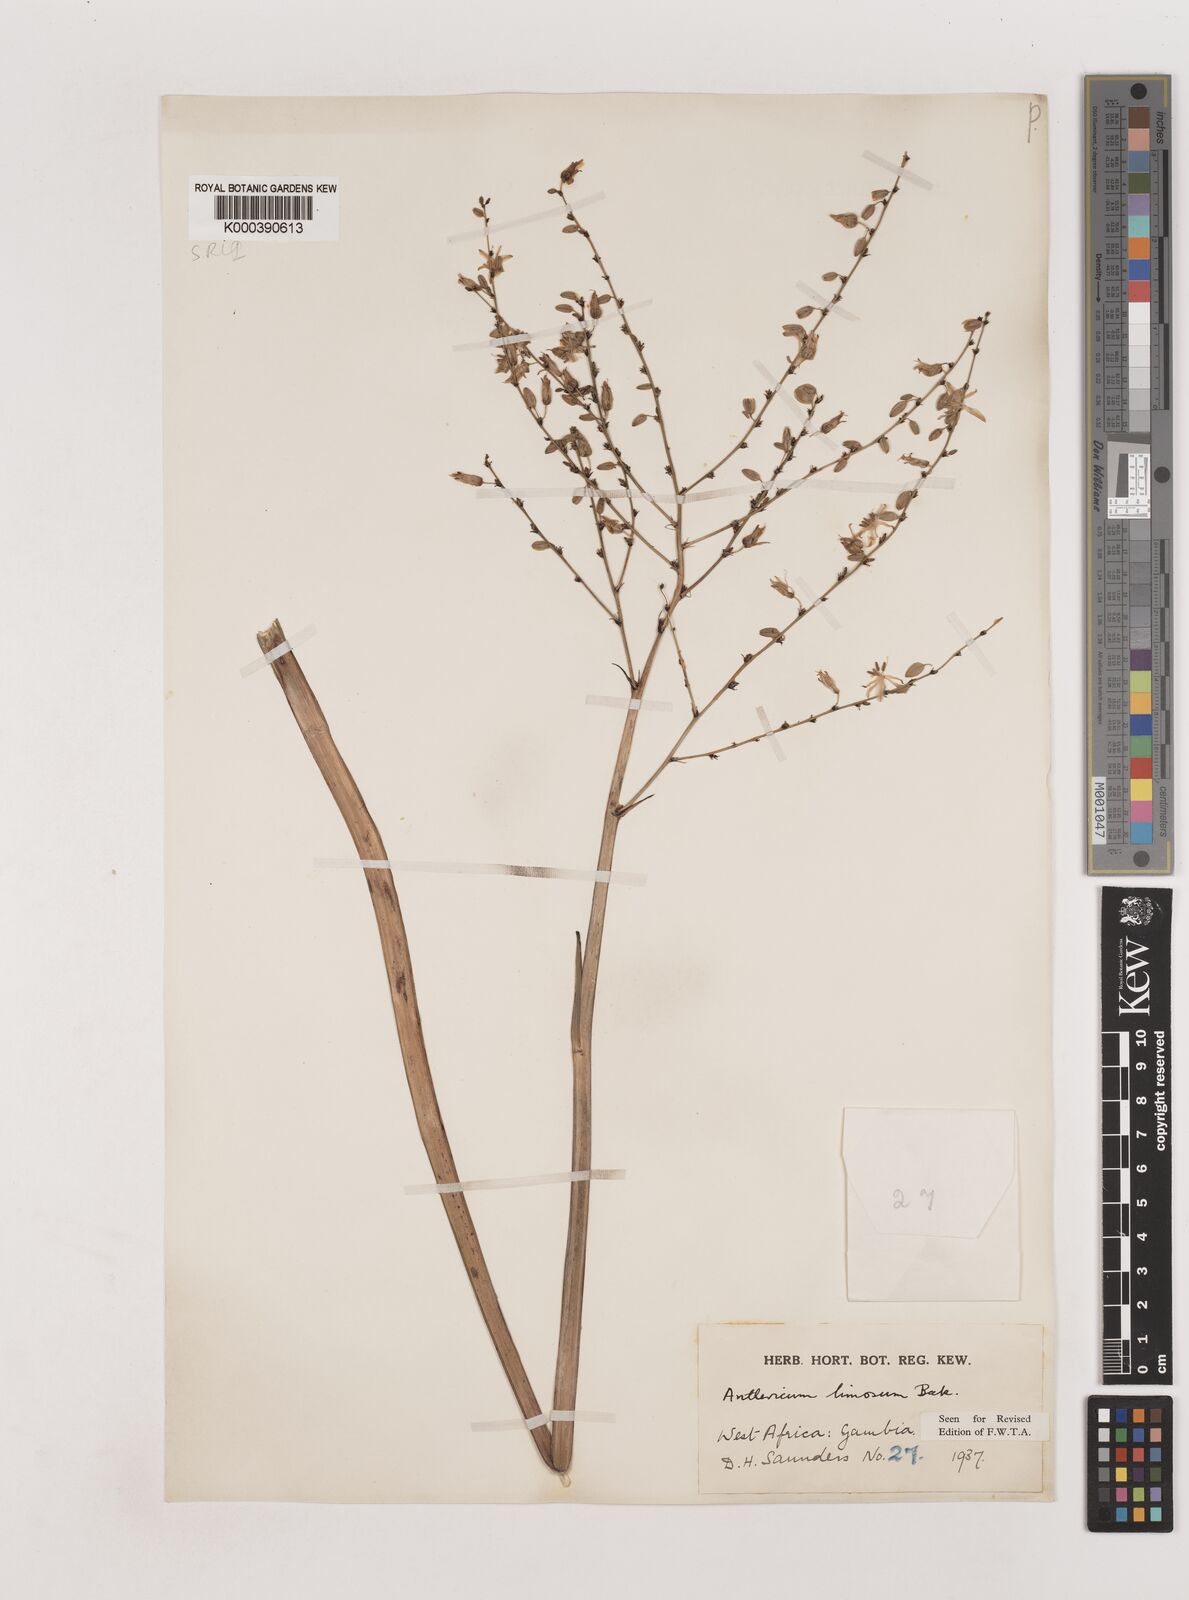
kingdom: Plantae
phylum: Tracheophyta
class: Liliopsida
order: Asparagales
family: Asparagaceae
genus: Chlorophytum
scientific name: Chlorophytum limosum
